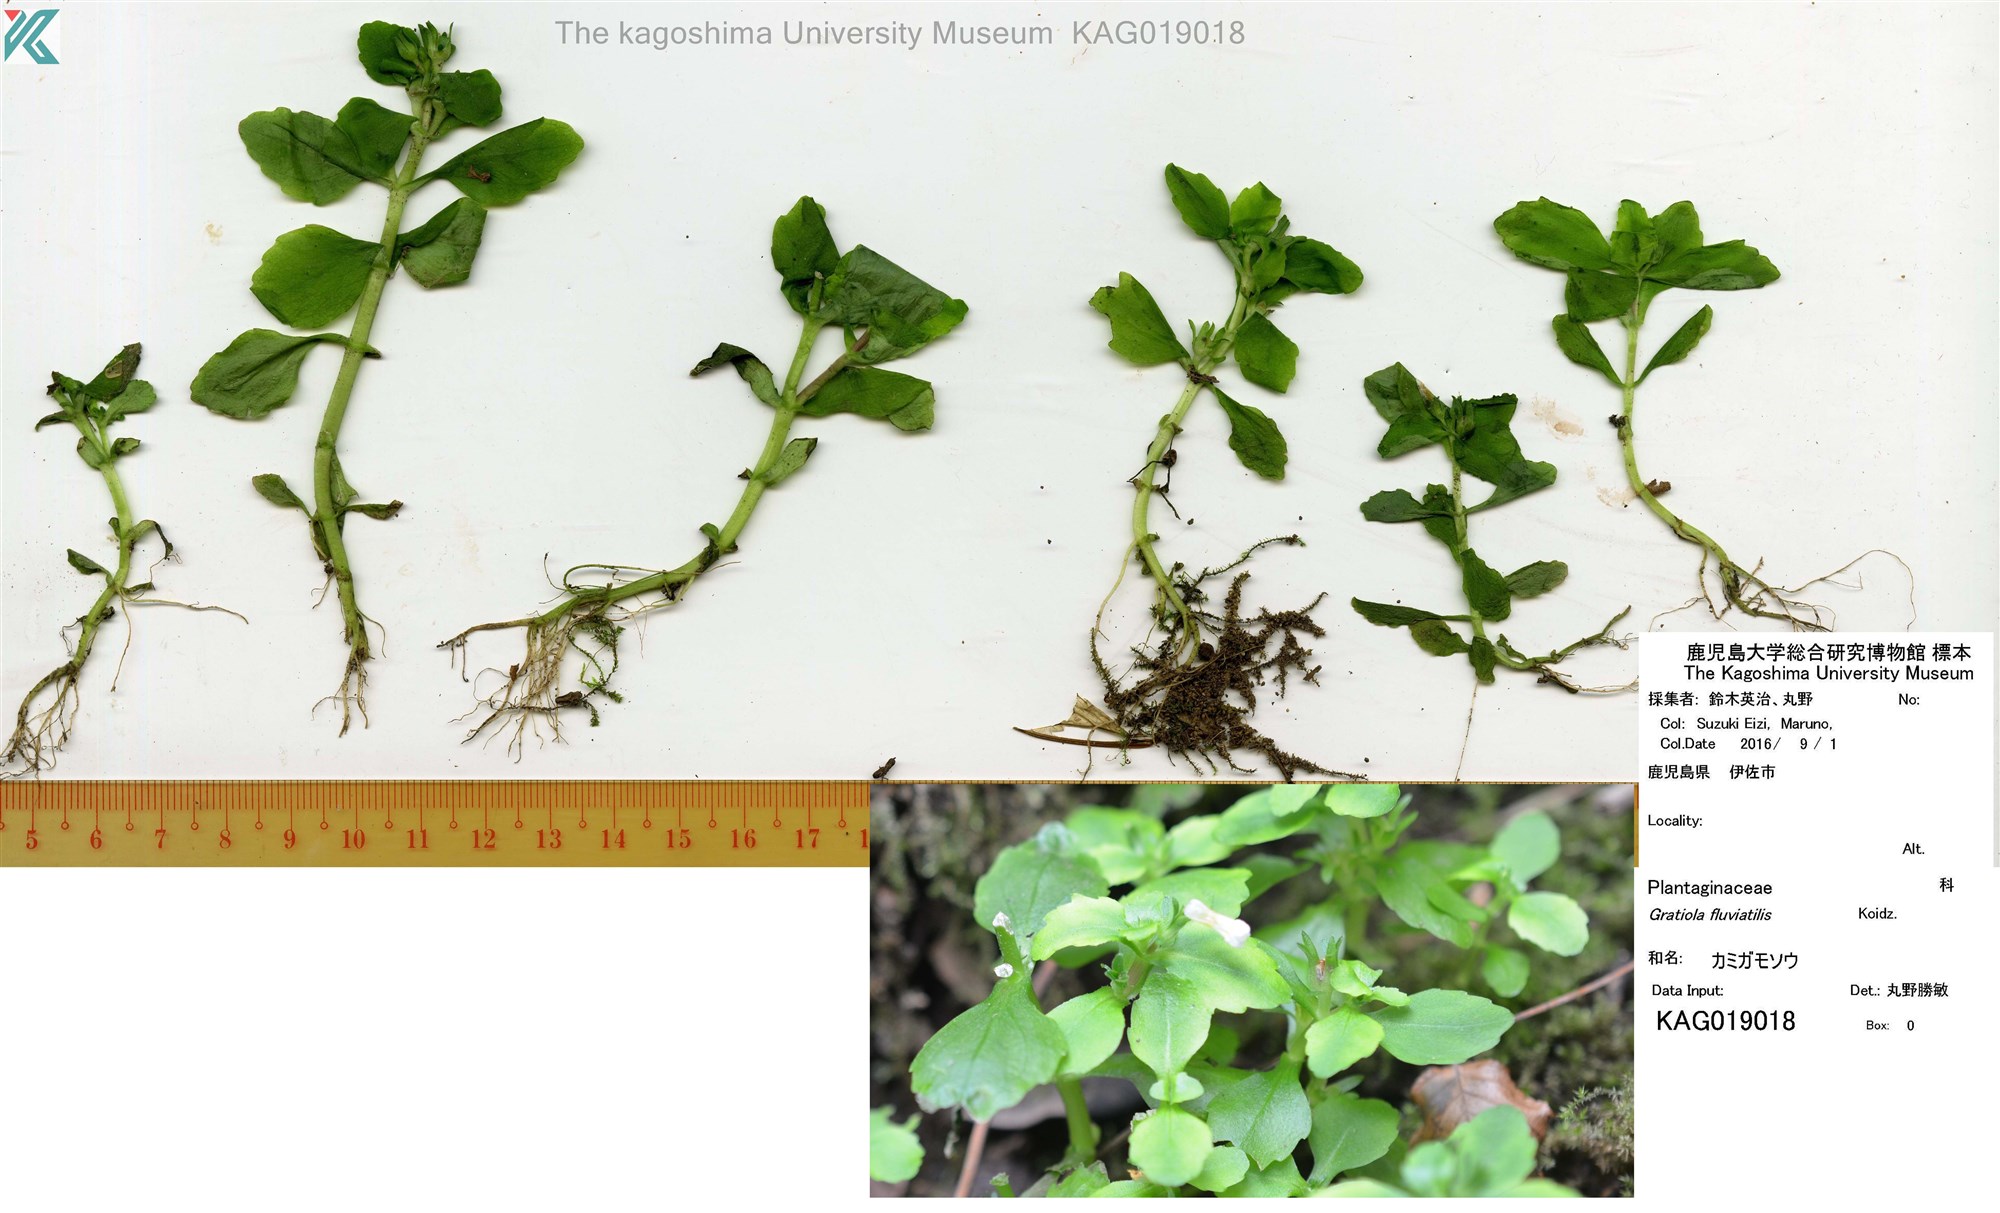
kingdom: Plantae
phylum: Tracheophyta
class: Magnoliopsida
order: Lamiales
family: Plantaginaceae
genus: Gratiola
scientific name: Gratiola fluviatilis
